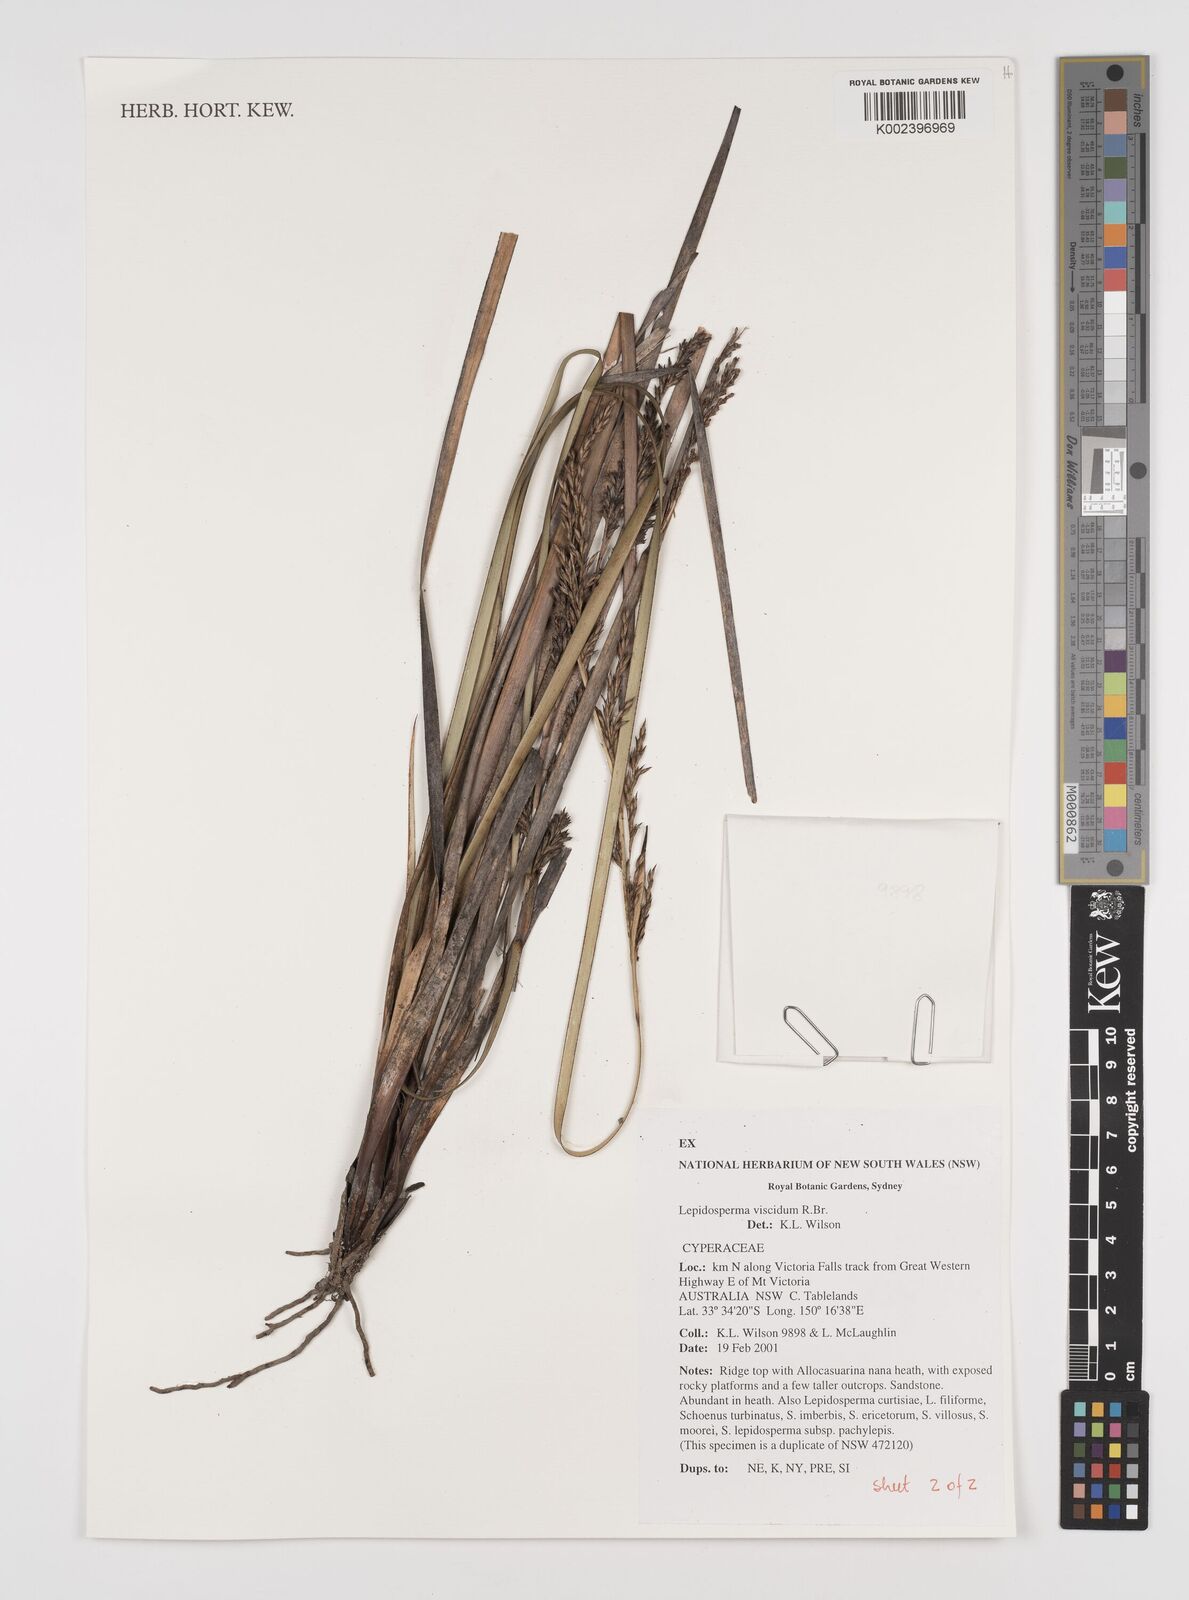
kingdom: Plantae
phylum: Tracheophyta
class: Liliopsida
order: Poales
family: Cyperaceae
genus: Lepidosperma
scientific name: Lepidosperma viscidum
